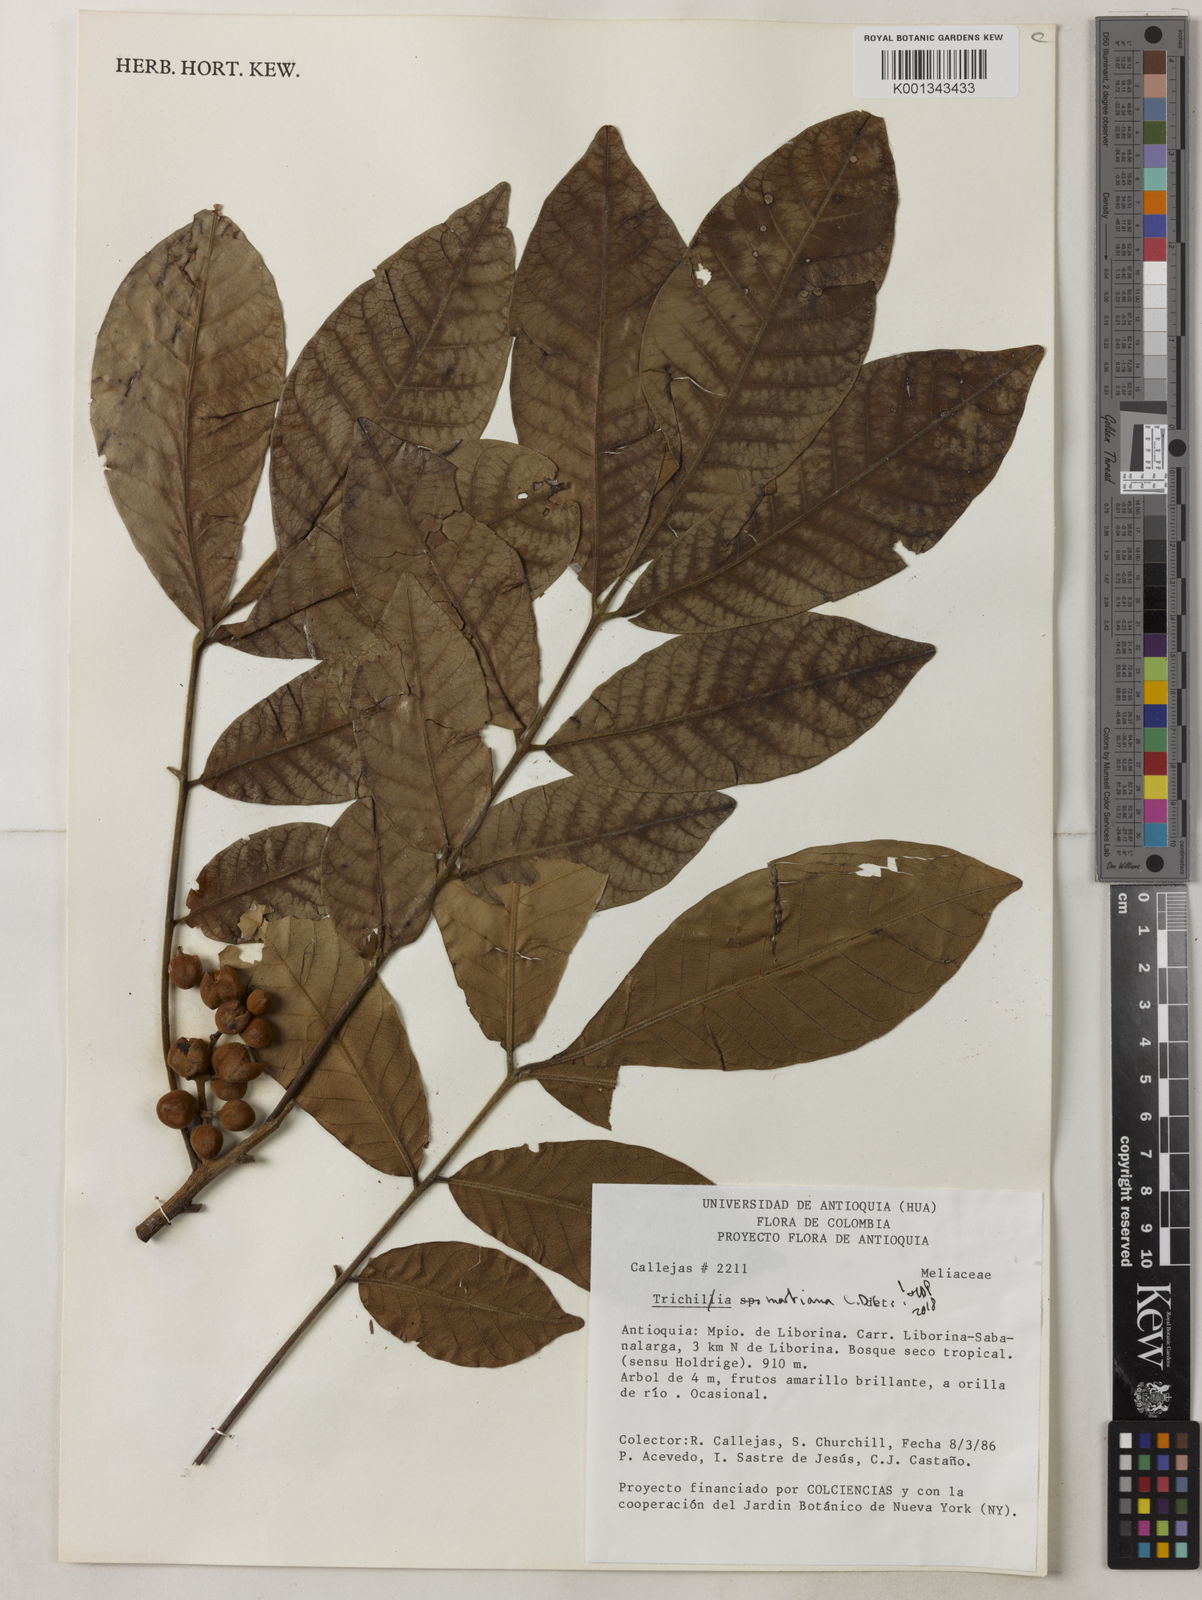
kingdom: Plantae
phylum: Tracheophyta
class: Magnoliopsida
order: Sapindales
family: Meliaceae
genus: Trichilia
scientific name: Trichilia martiana
